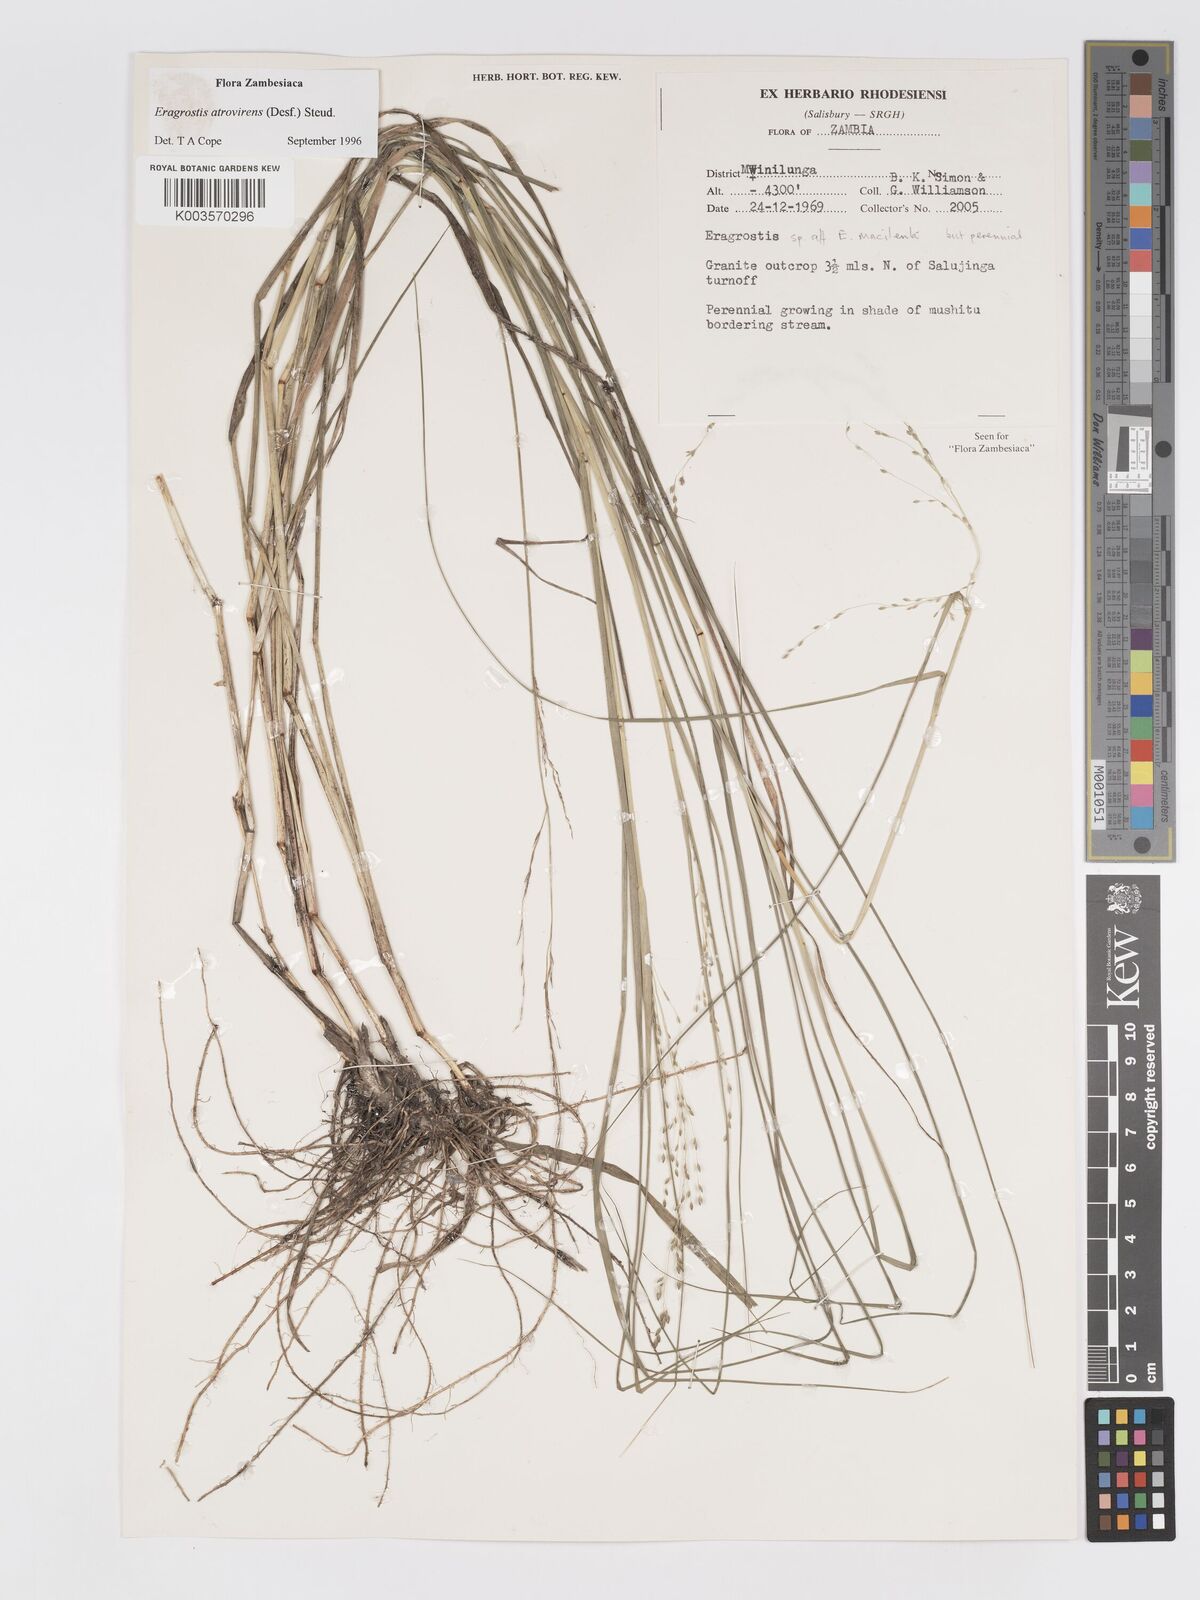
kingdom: Plantae
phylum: Tracheophyta
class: Liliopsida
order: Poales
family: Poaceae
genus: Eragrostis
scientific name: Eragrostis atrovirens
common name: Thalia lovegrass
